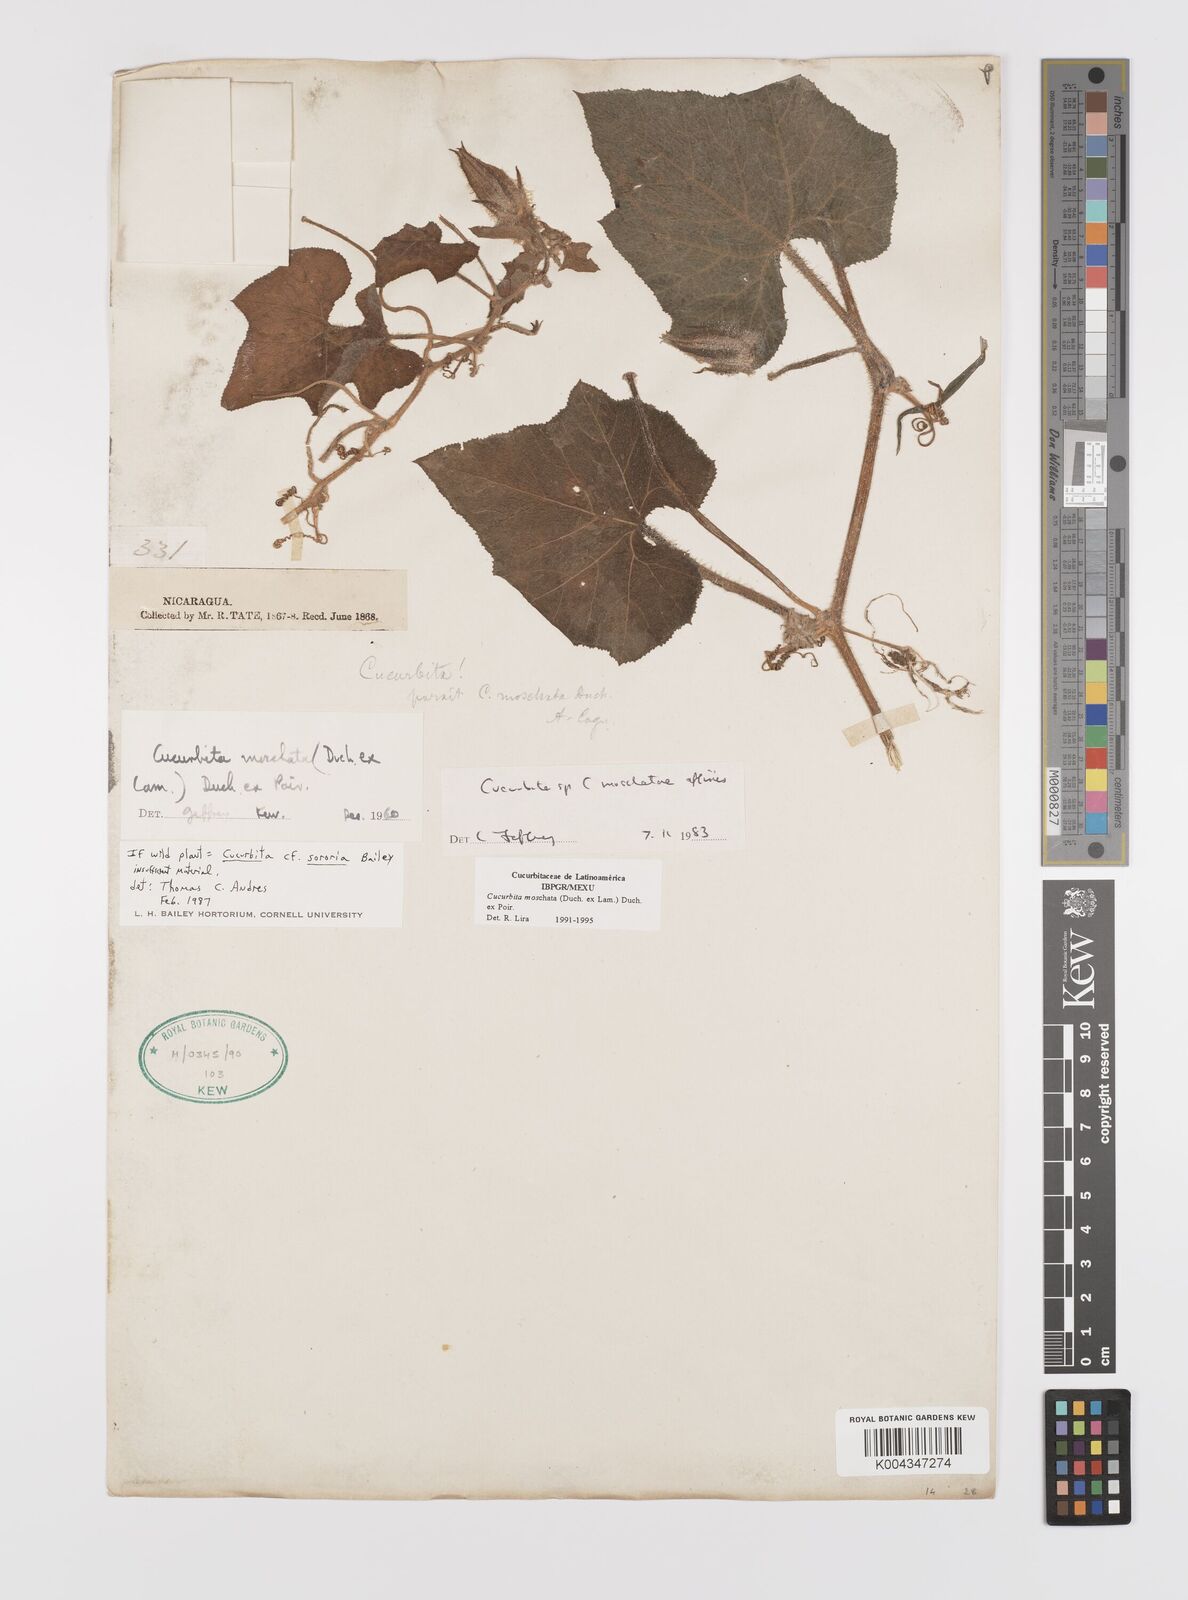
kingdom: Plantae
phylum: Tracheophyta
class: Magnoliopsida
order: Cucurbitales
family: Cucurbitaceae
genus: Cucurbita
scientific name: Cucurbita moschata
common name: Squash / pumpkin
